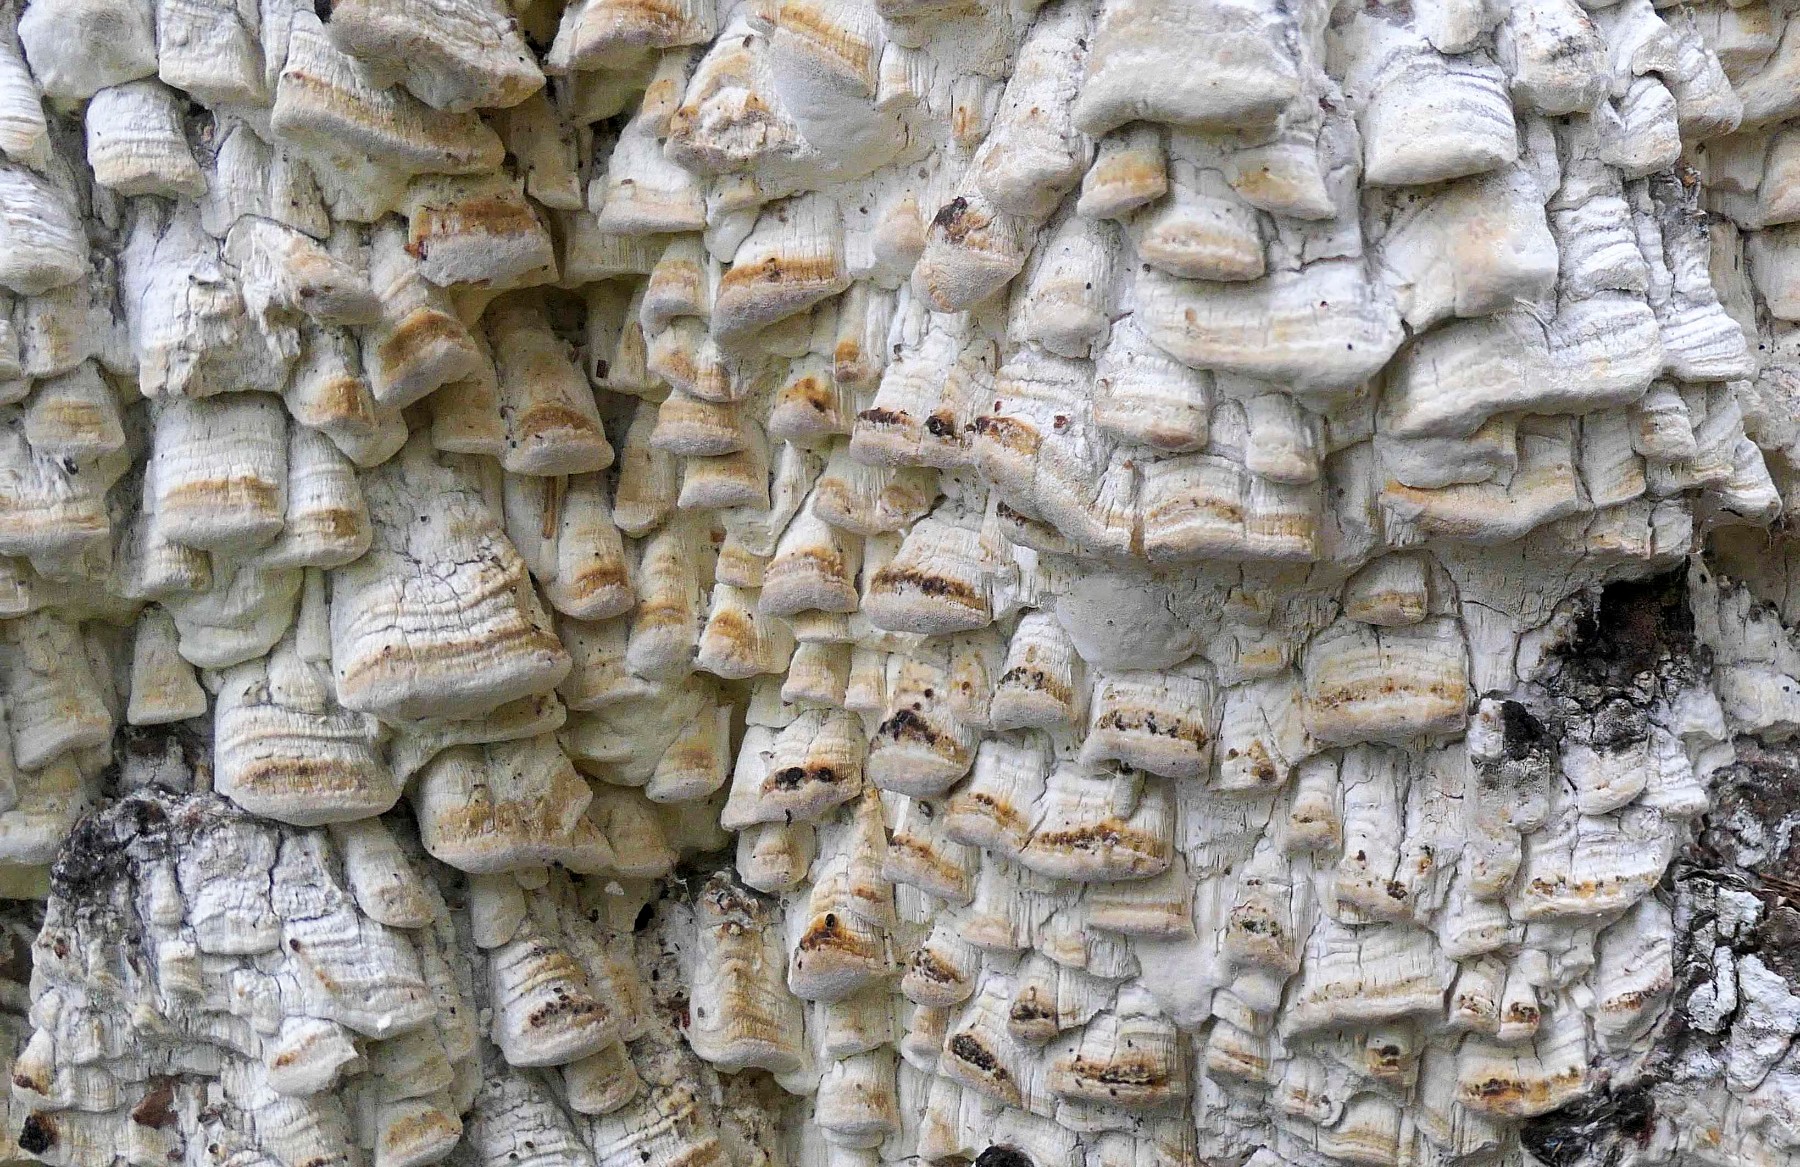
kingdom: Fungi
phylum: Basidiomycota
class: Agaricomycetes
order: Polyporales
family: Fomitopsidaceae
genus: Daedalea
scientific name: Daedalea xantha
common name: gul sejporesvamp
